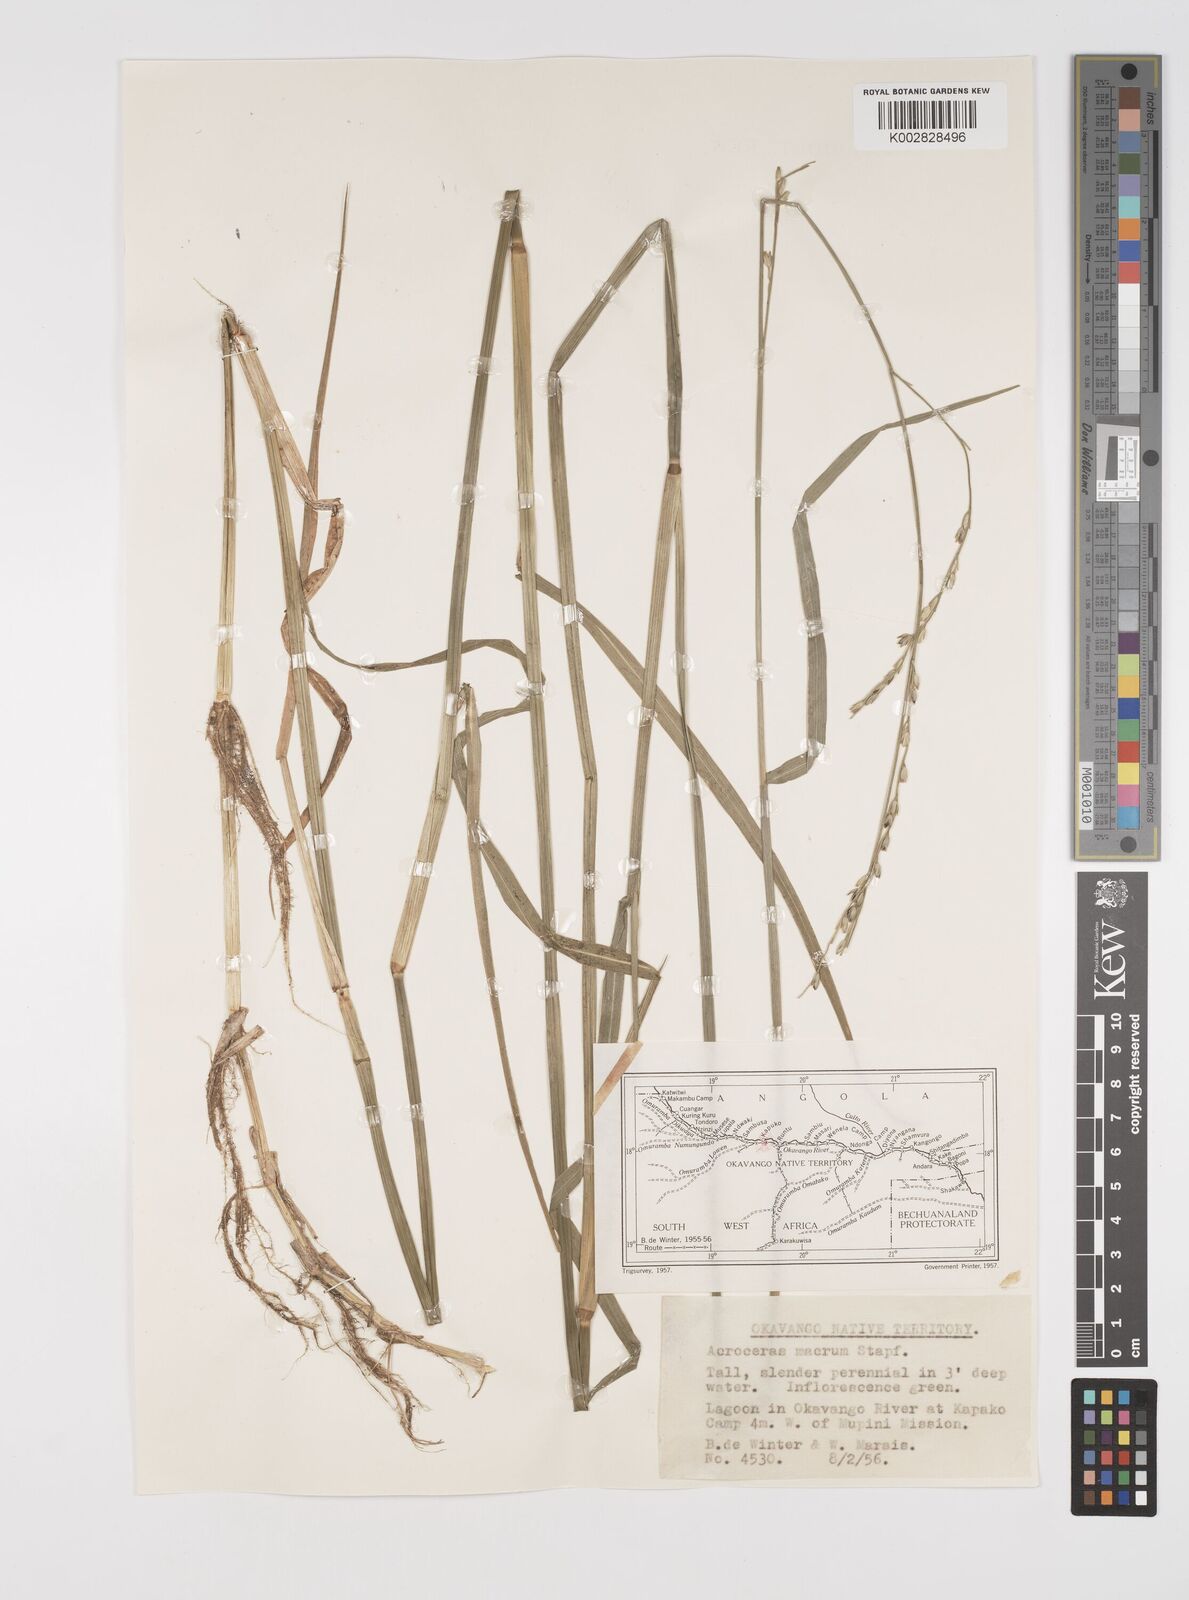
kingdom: Plantae
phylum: Tracheophyta
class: Liliopsida
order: Poales
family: Poaceae
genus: Acroceras
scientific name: Acroceras macrum
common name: Nyl grass
